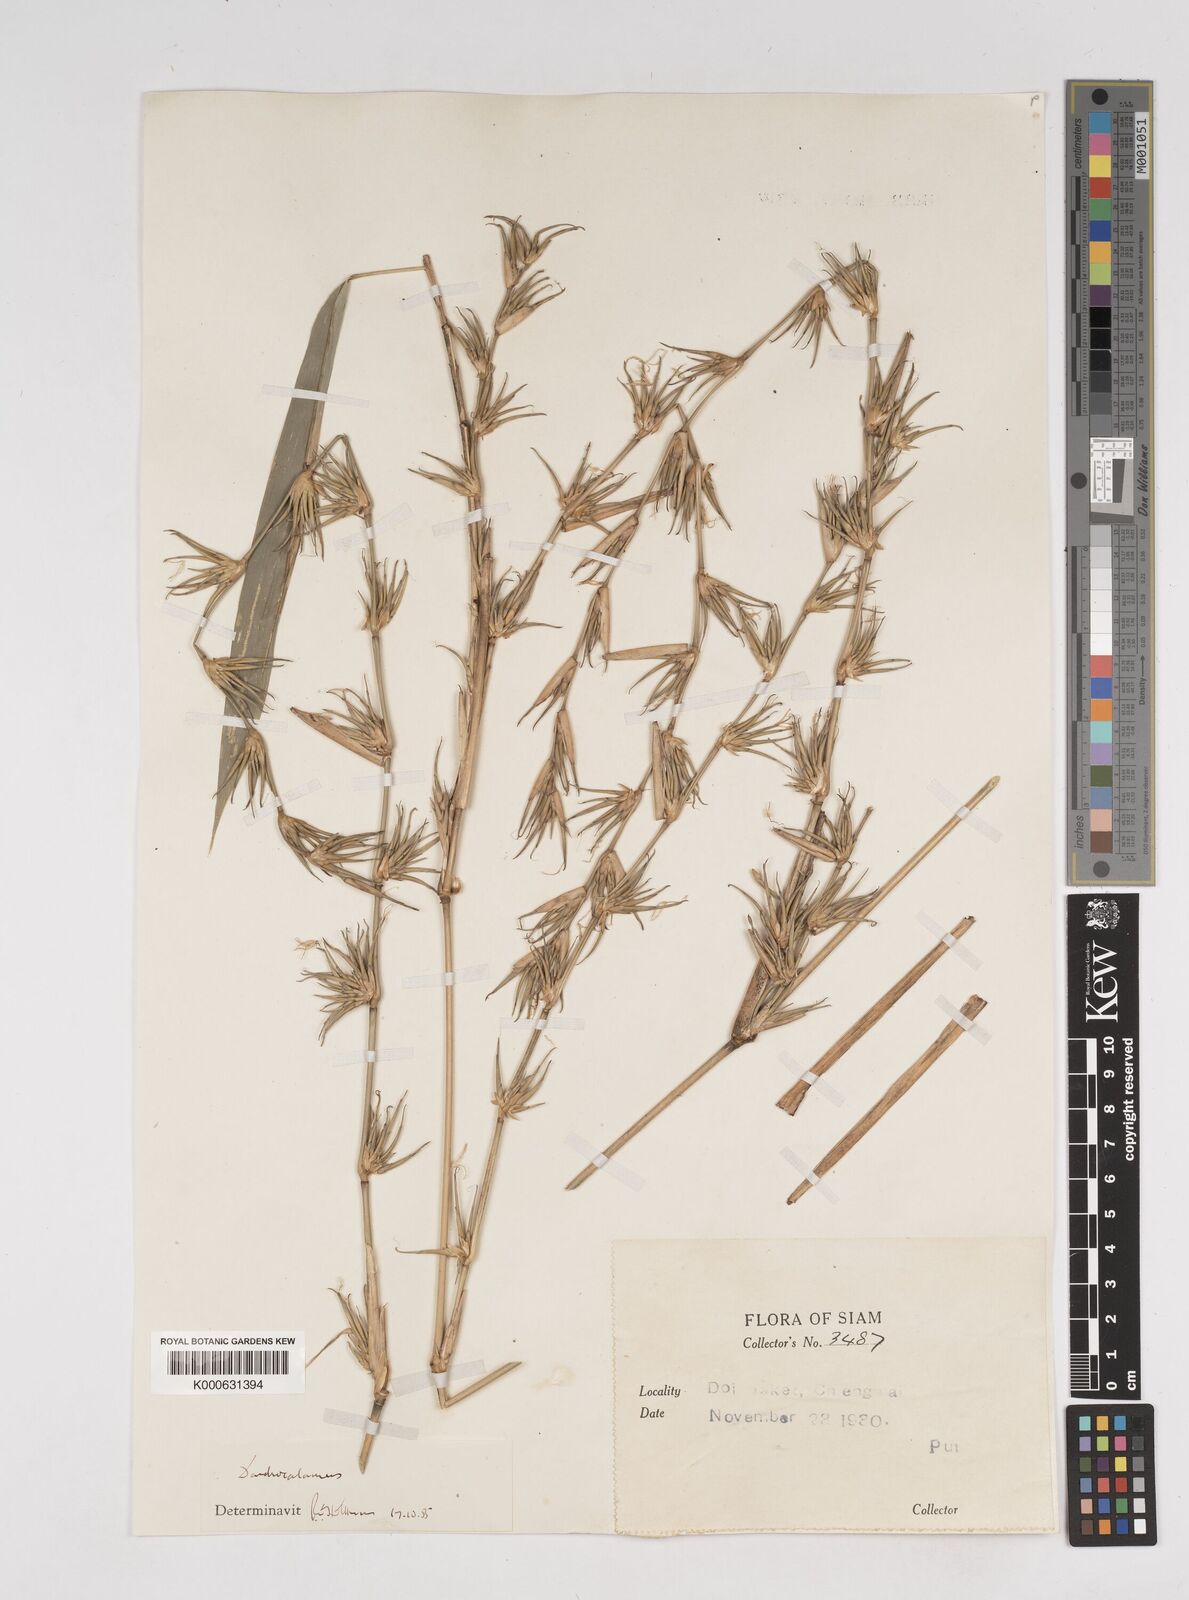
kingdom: Plantae
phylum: Tracheophyta
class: Liliopsida
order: Poales
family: Poaceae
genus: Dendrocalamus
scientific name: Dendrocalamus
